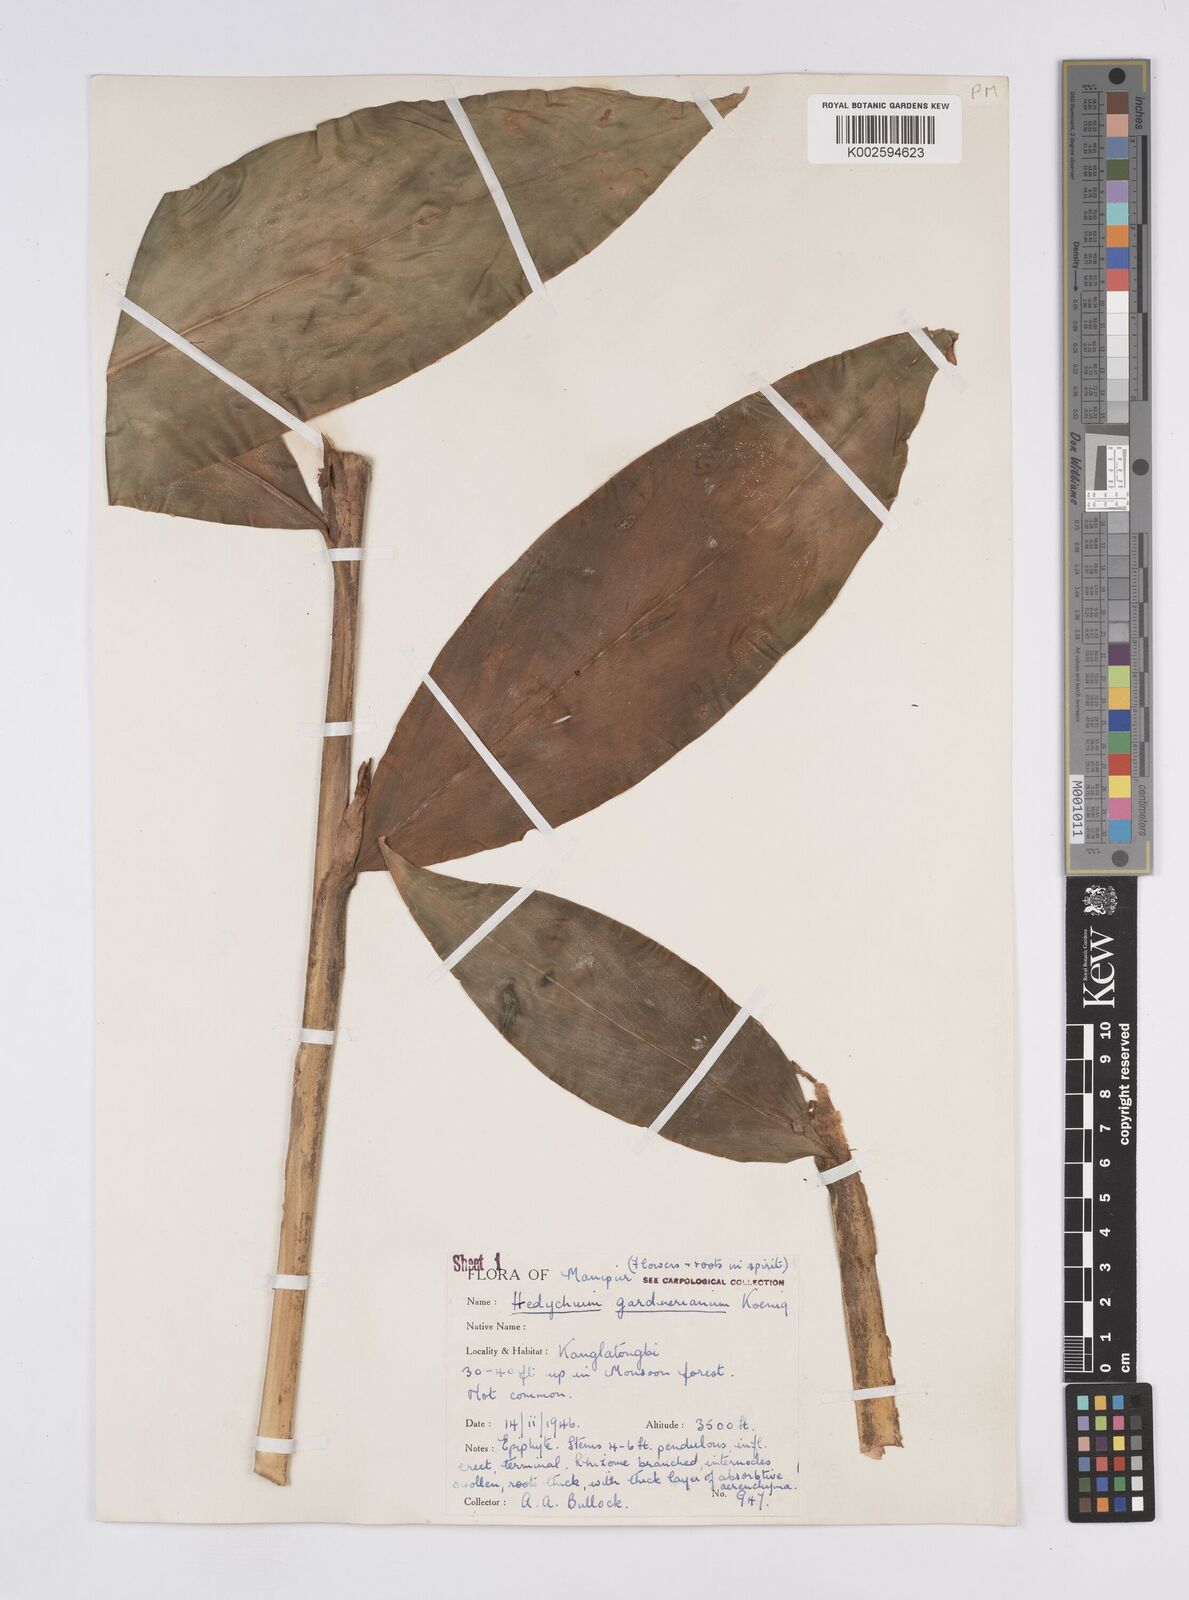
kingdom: Plantae
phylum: Tracheophyta
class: Liliopsida
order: Zingiberales
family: Zingiberaceae
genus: Hedychium
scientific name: Hedychium gardnerianum
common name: Himalayan ginger
